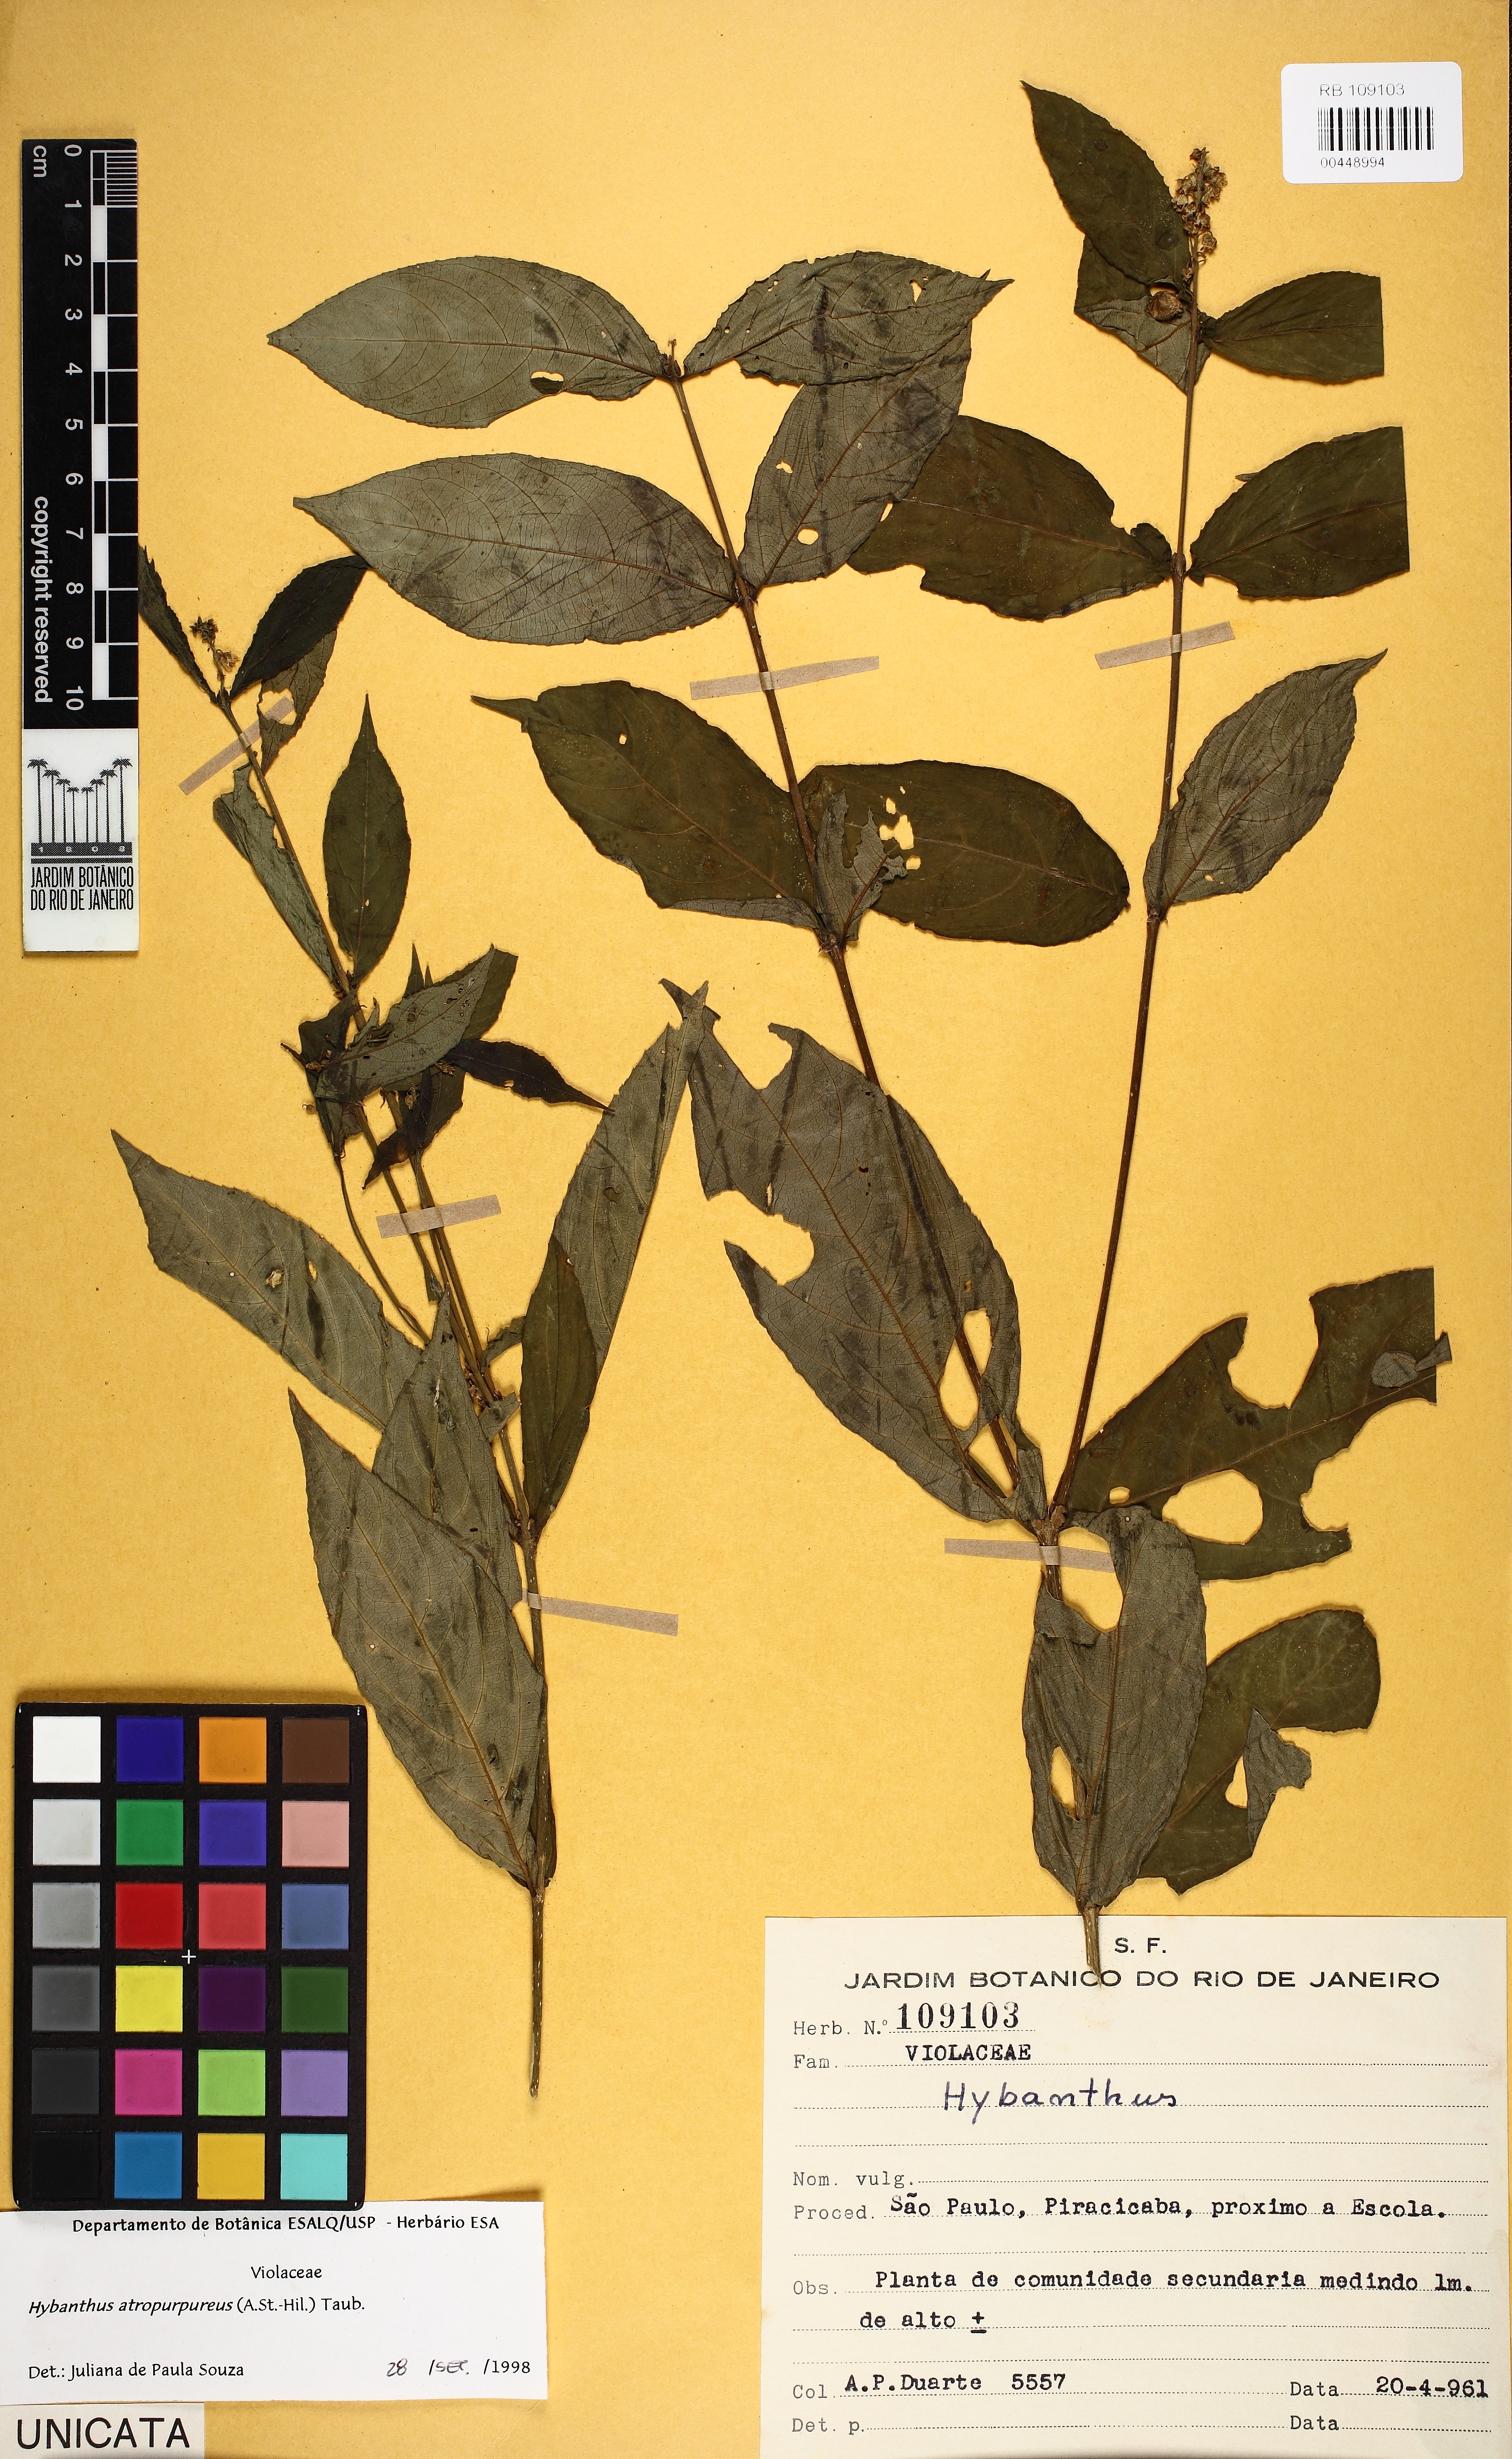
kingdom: Plantae
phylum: Tracheophyta
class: Magnoliopsida
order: Malpighiales
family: Violaceae
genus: Pombalia
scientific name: Pombalia atropurpurea
